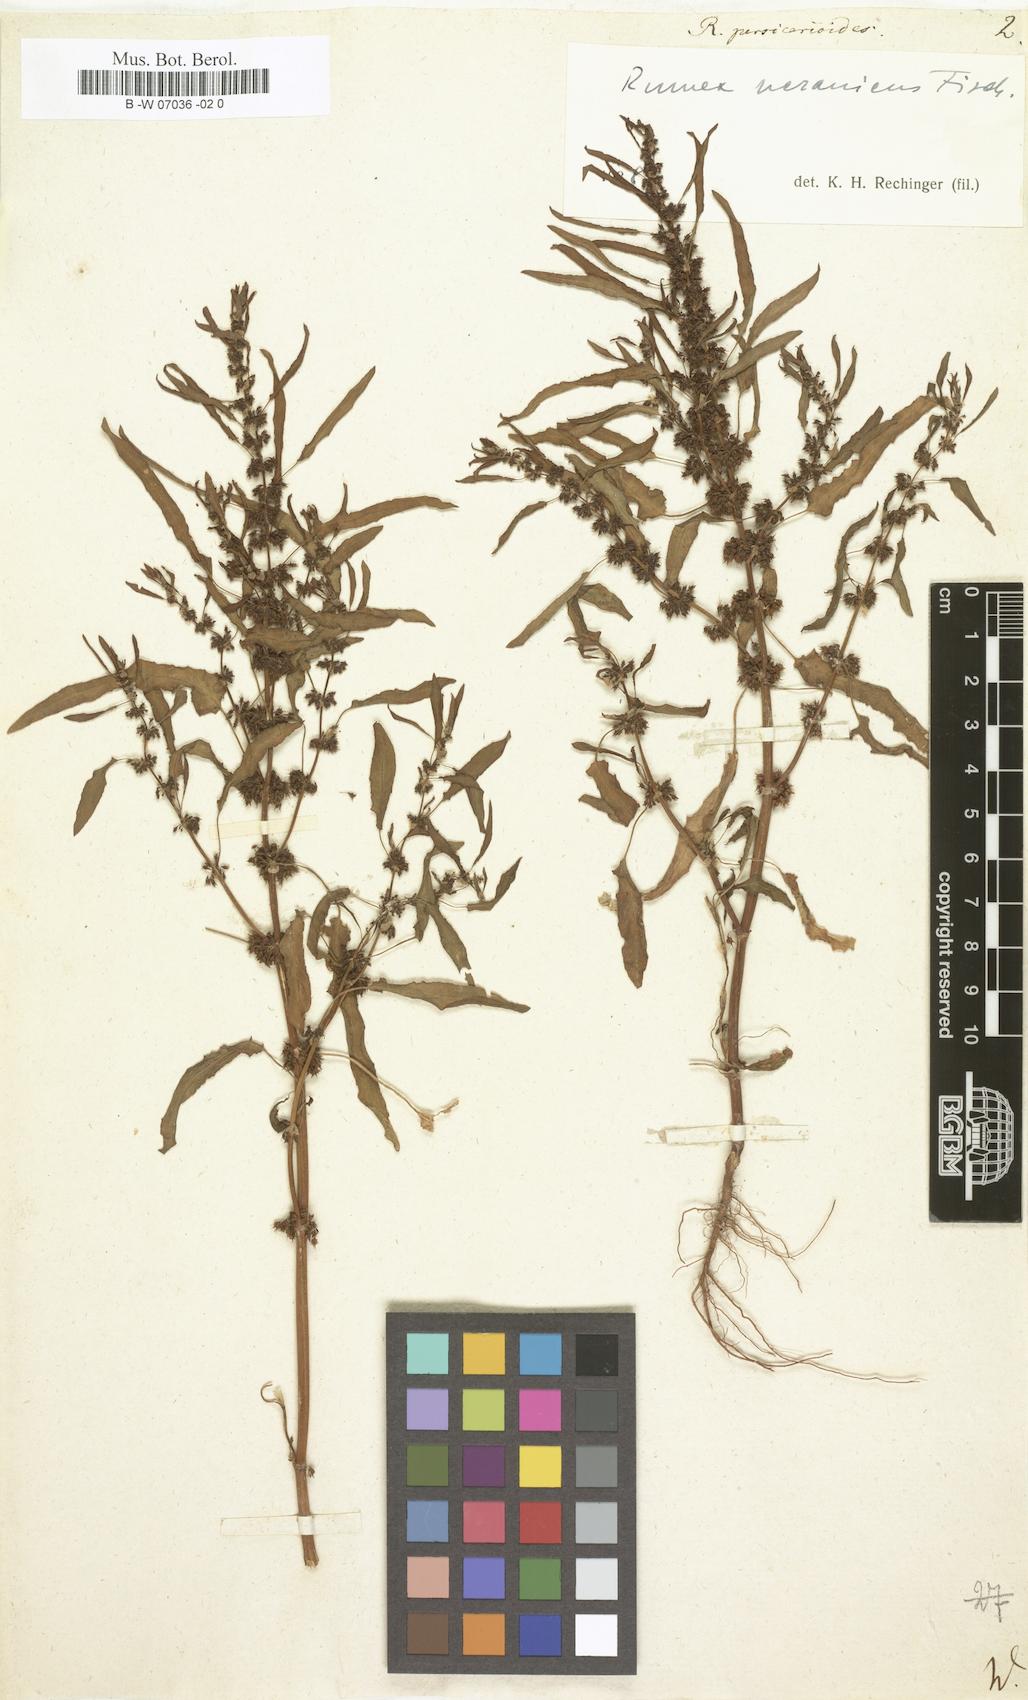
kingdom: Plantae
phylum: Tracheophyta
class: Magnoliopsida
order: Caryophyllales
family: Polygonaceae
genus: Rumex
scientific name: Rumex persicarioides
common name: Peach-leaved dock
